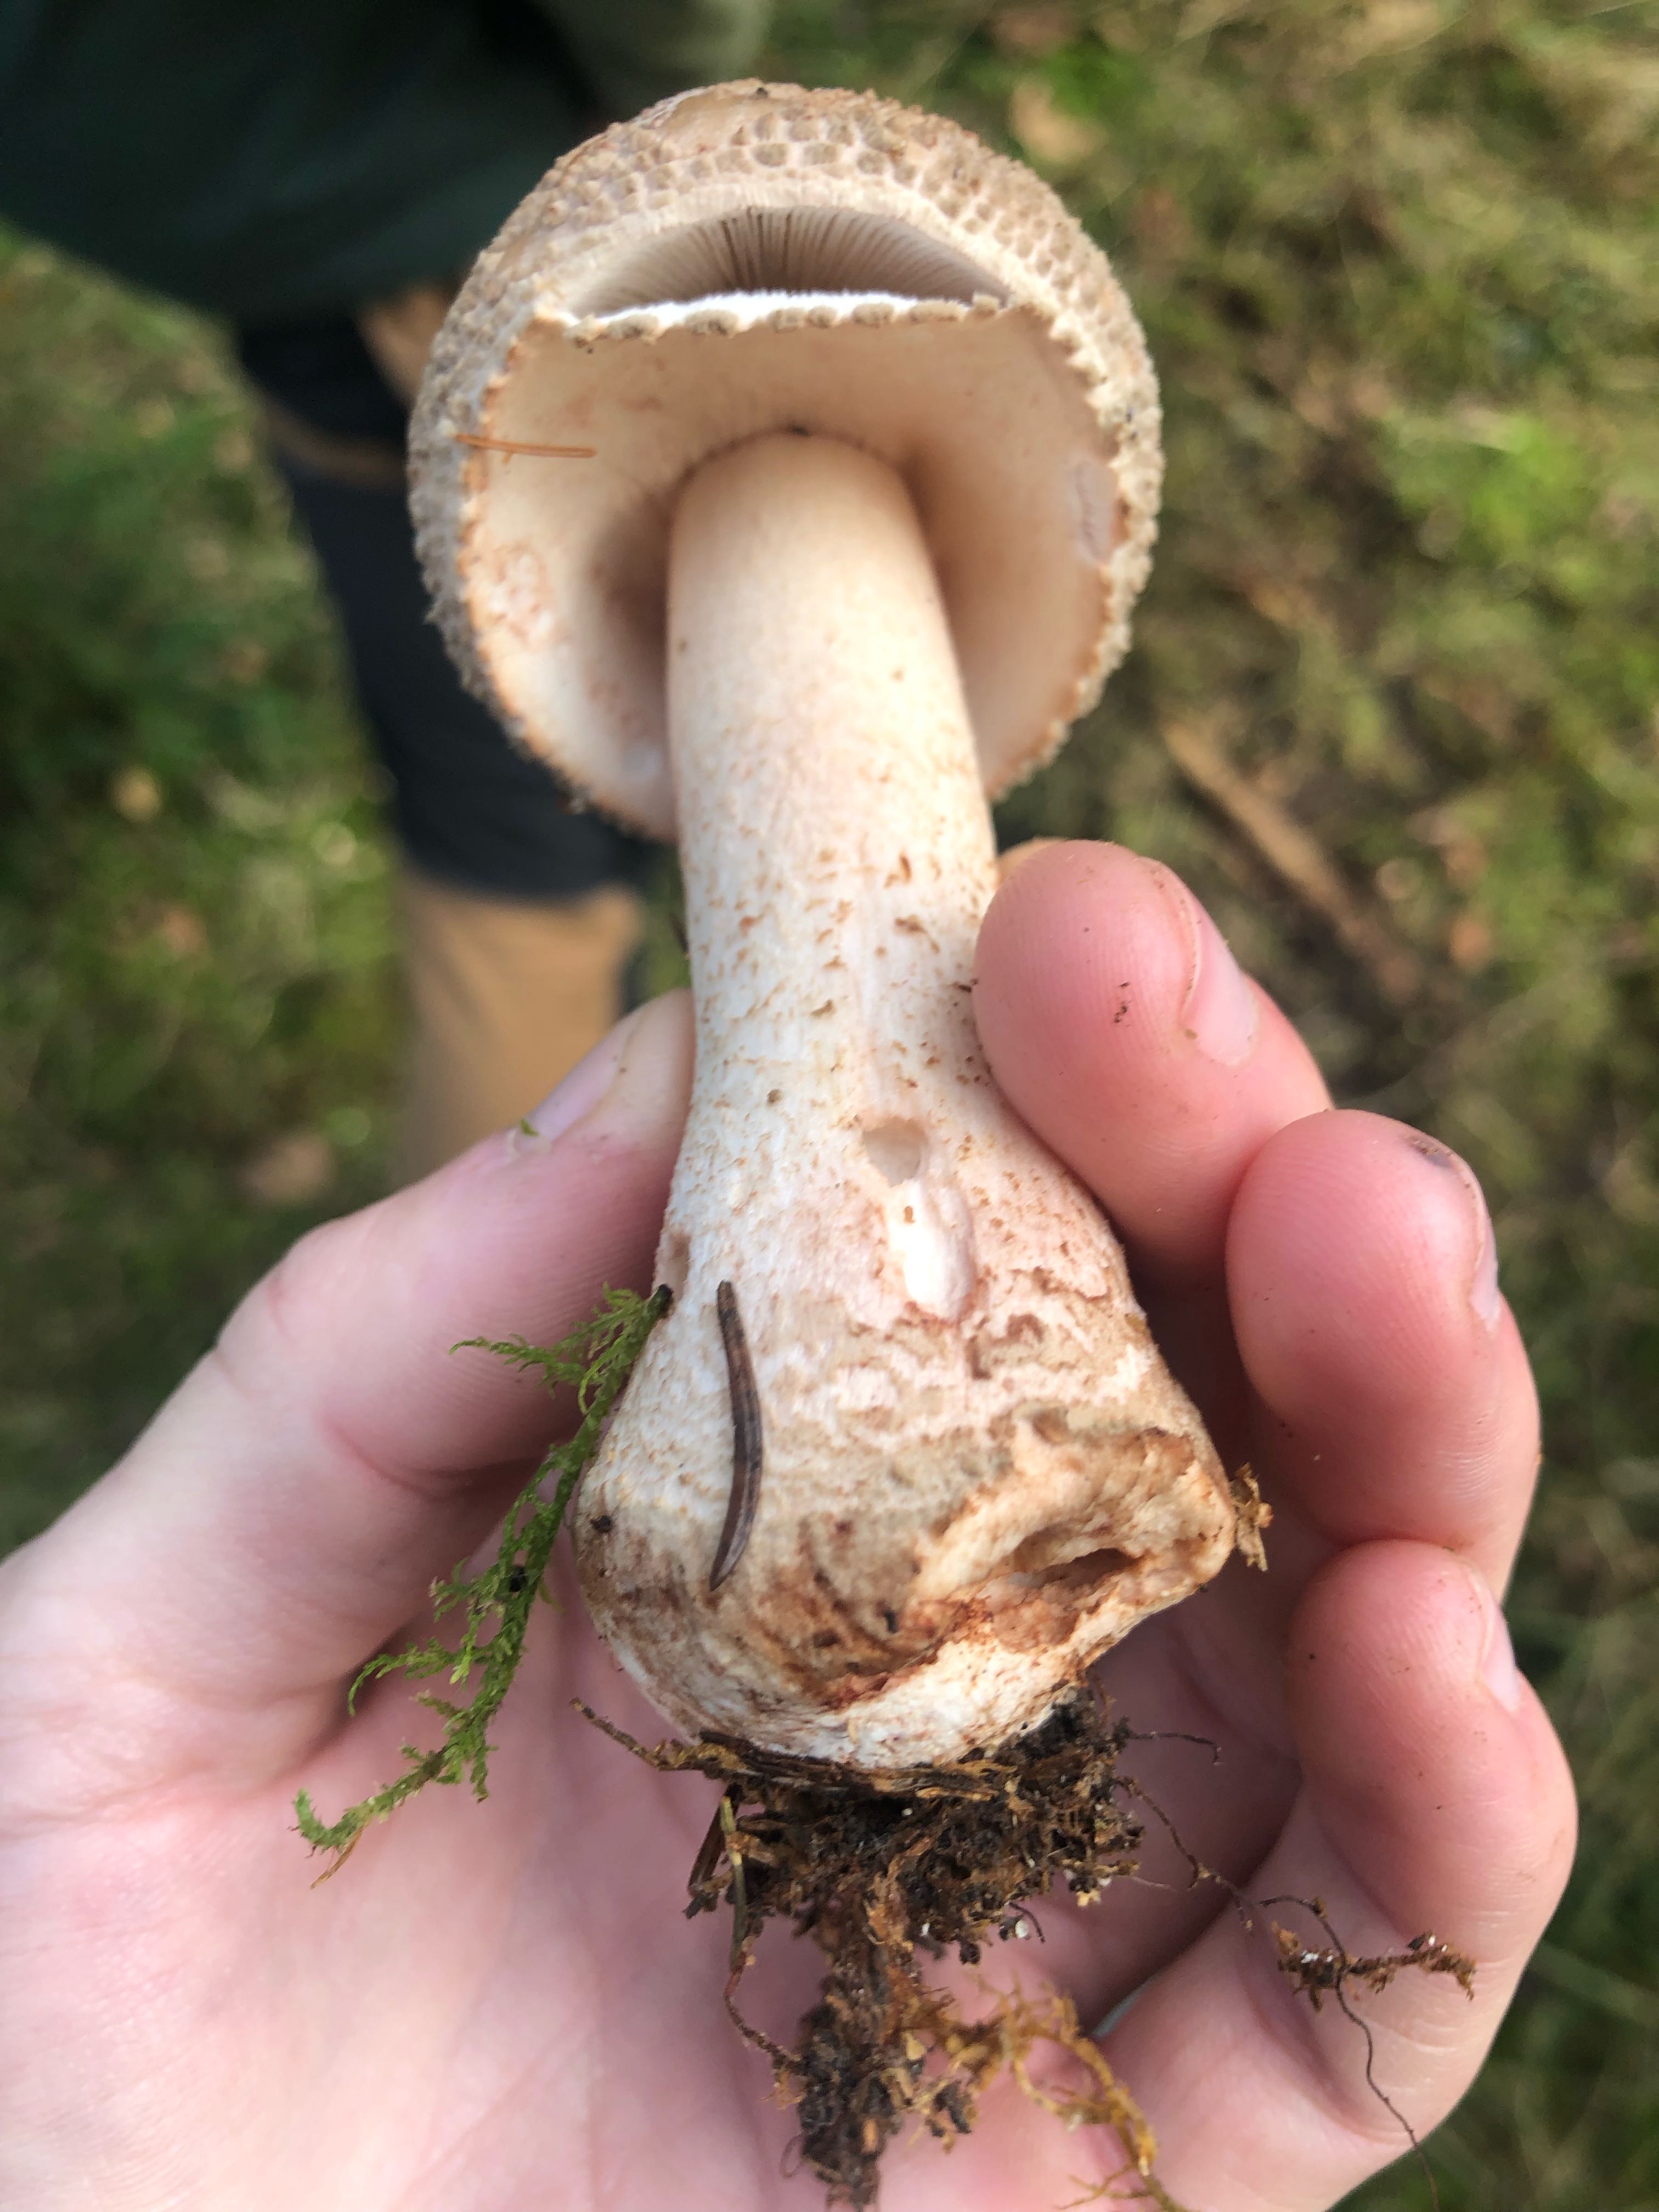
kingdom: Fungi
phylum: Basidiomycota
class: Agaricomycetes
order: Agaricales
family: Amanitaceae
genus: Amanita
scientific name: Amanita rubescens
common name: rødmende fluesvamp
